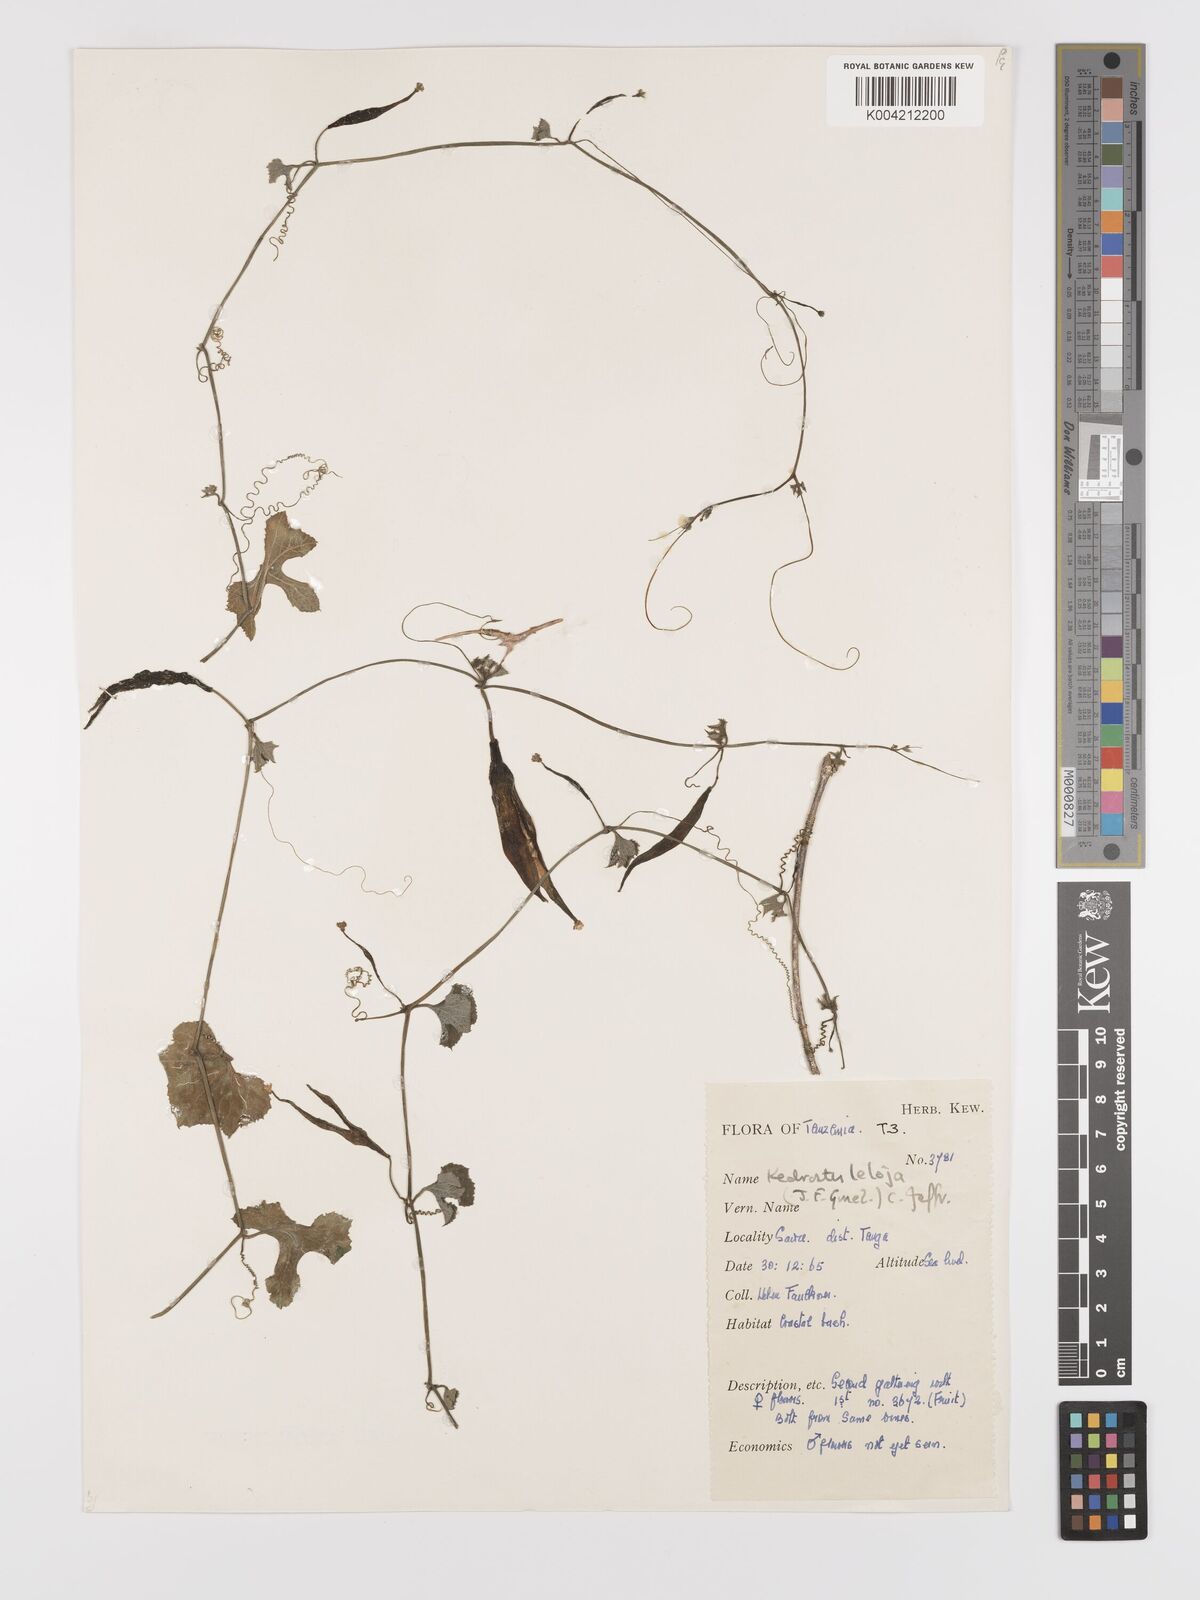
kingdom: Plantae
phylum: Tracheophyta
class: Magnoliopsida
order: Cucurbitales
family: Cucurbitaceae
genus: Kedrostis
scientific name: Kedrostis abdallae
